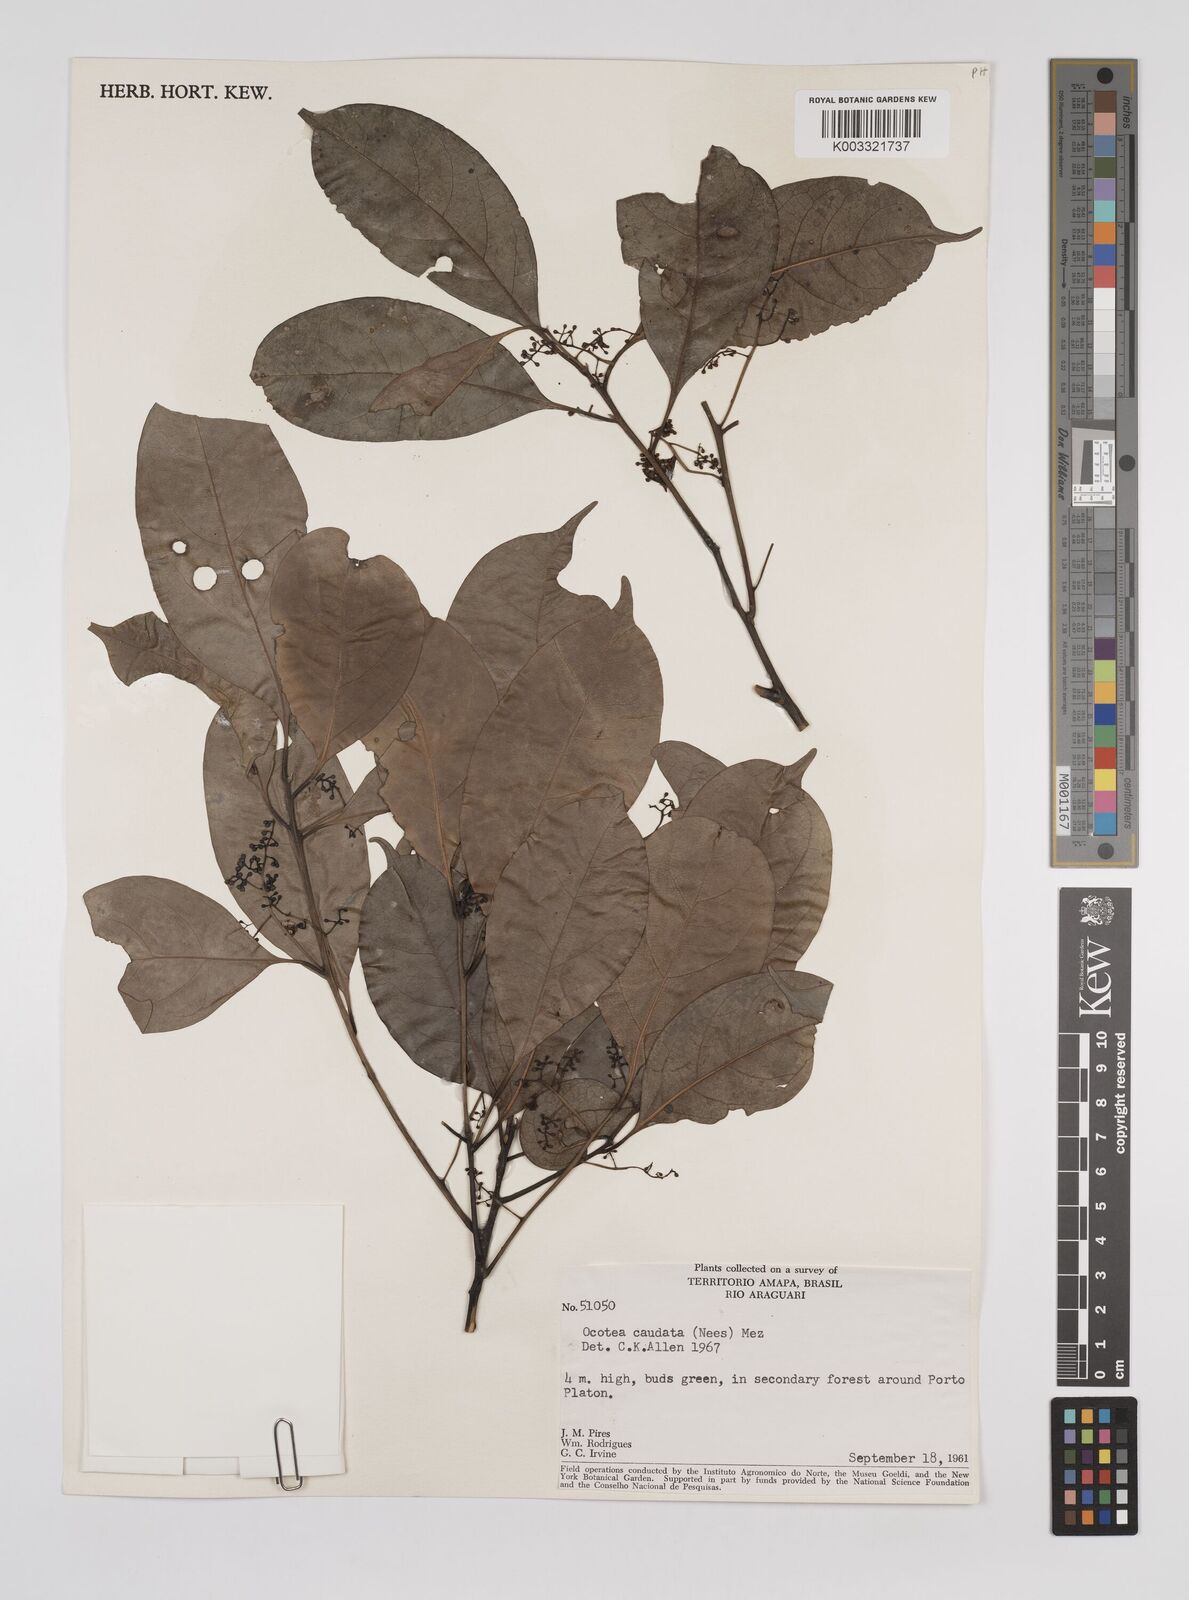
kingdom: Plantae
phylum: Tracheophyta
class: Magnoliopsida
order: Laurales
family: Lauraceae
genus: Ocotea
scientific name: Ocotea leptobotra
